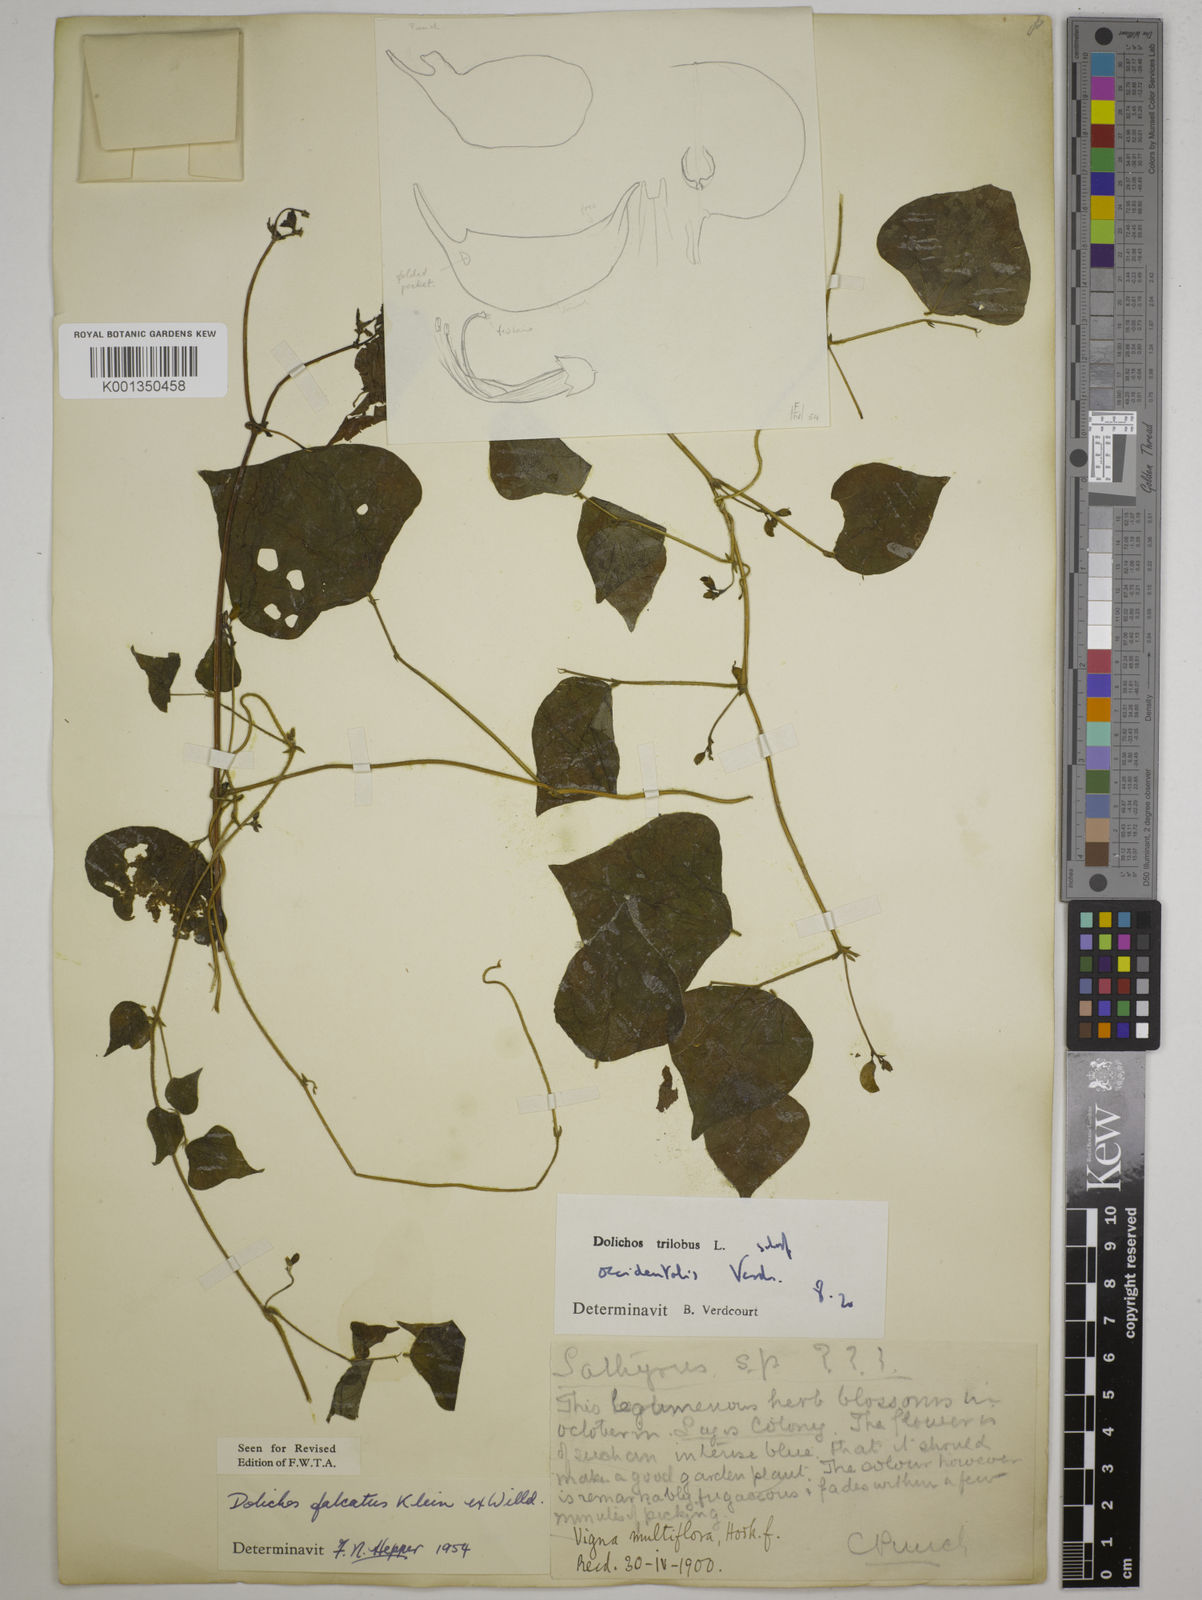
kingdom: Plantae
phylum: Tracheophyta
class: Magnoliopsida
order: Fabales
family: Fabaceae
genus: Dolichos
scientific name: Dolichos
